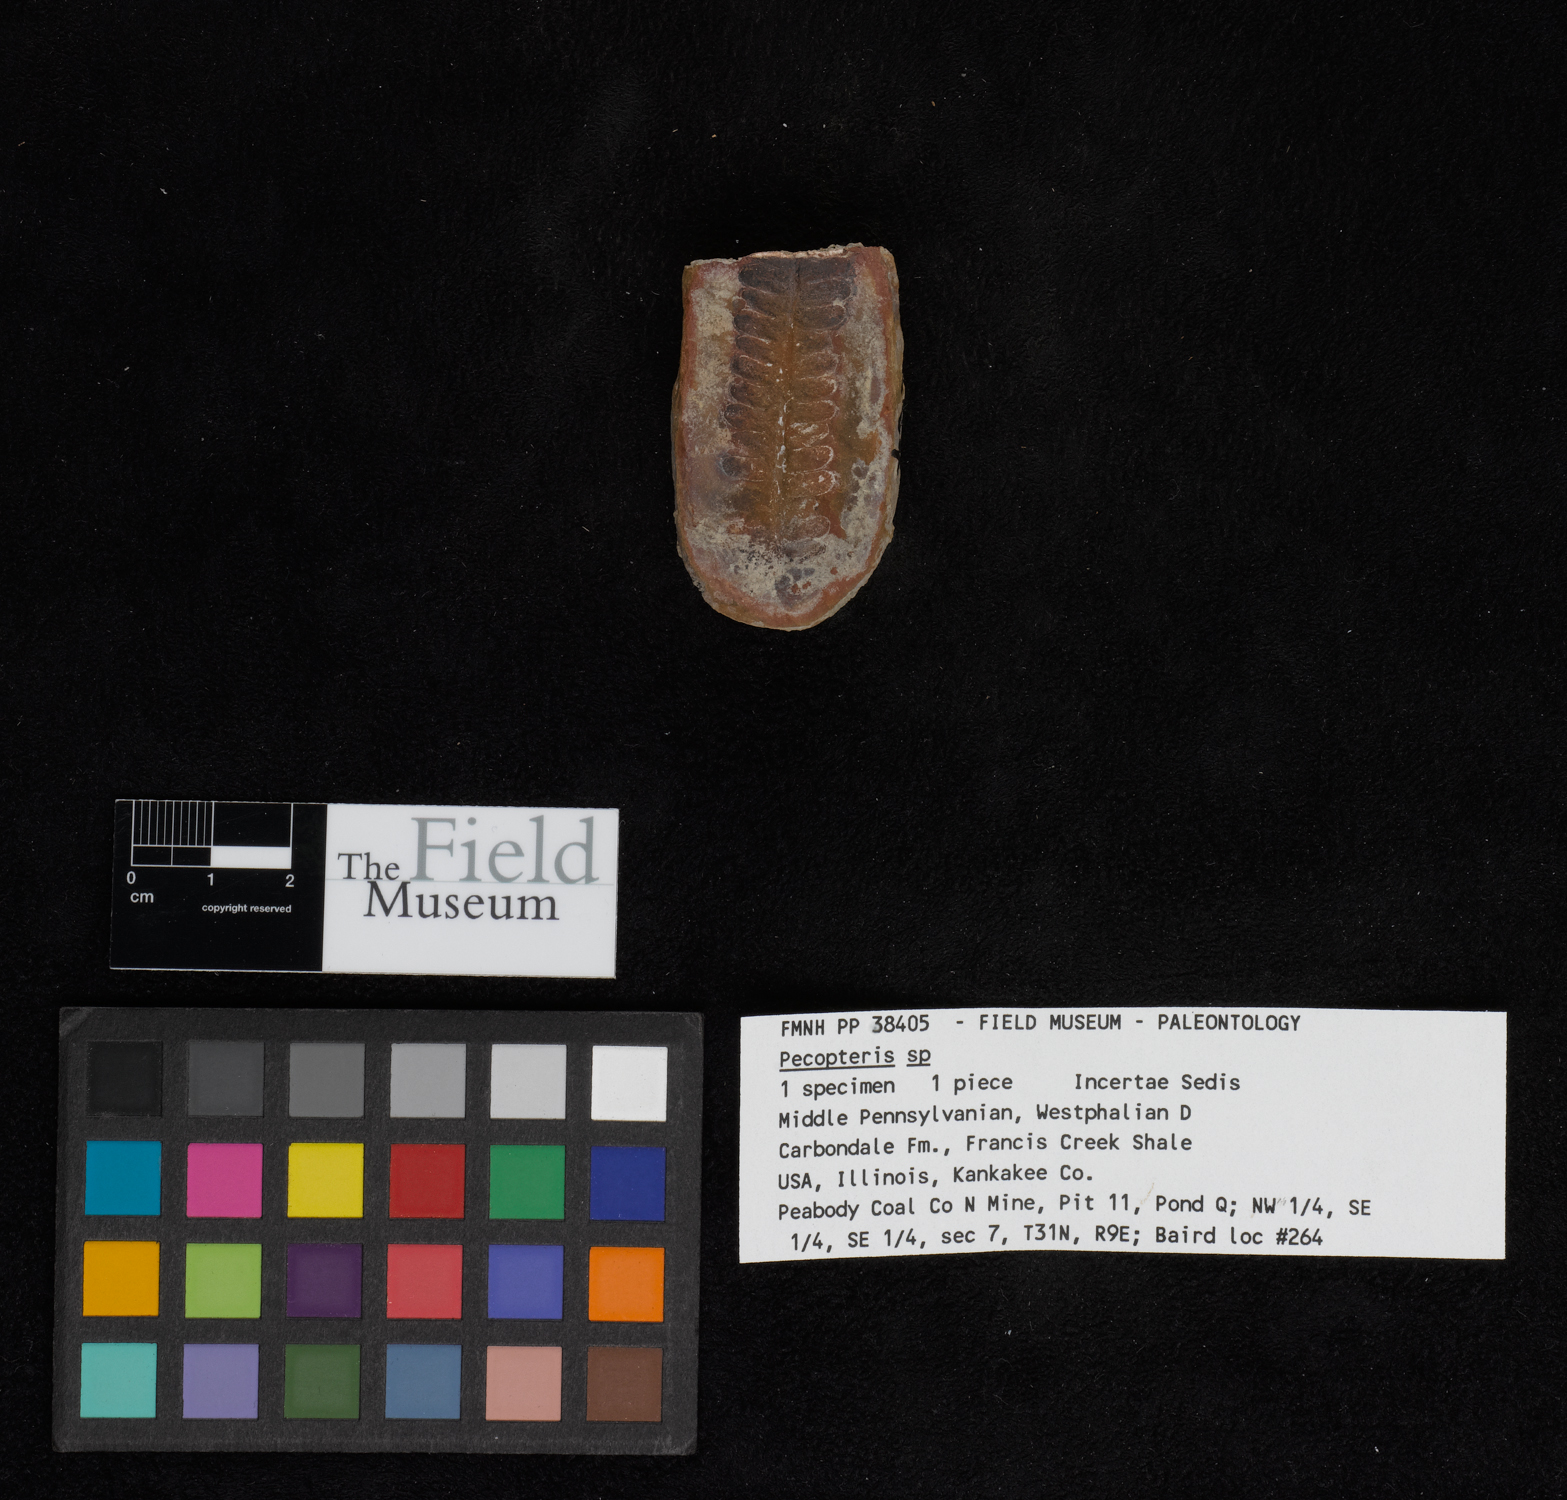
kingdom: Plantae
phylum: Tracheophyta
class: Polypodiopsida
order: Marattiales
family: Asterothecaceae
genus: Pecopteris
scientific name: Pecopteris
